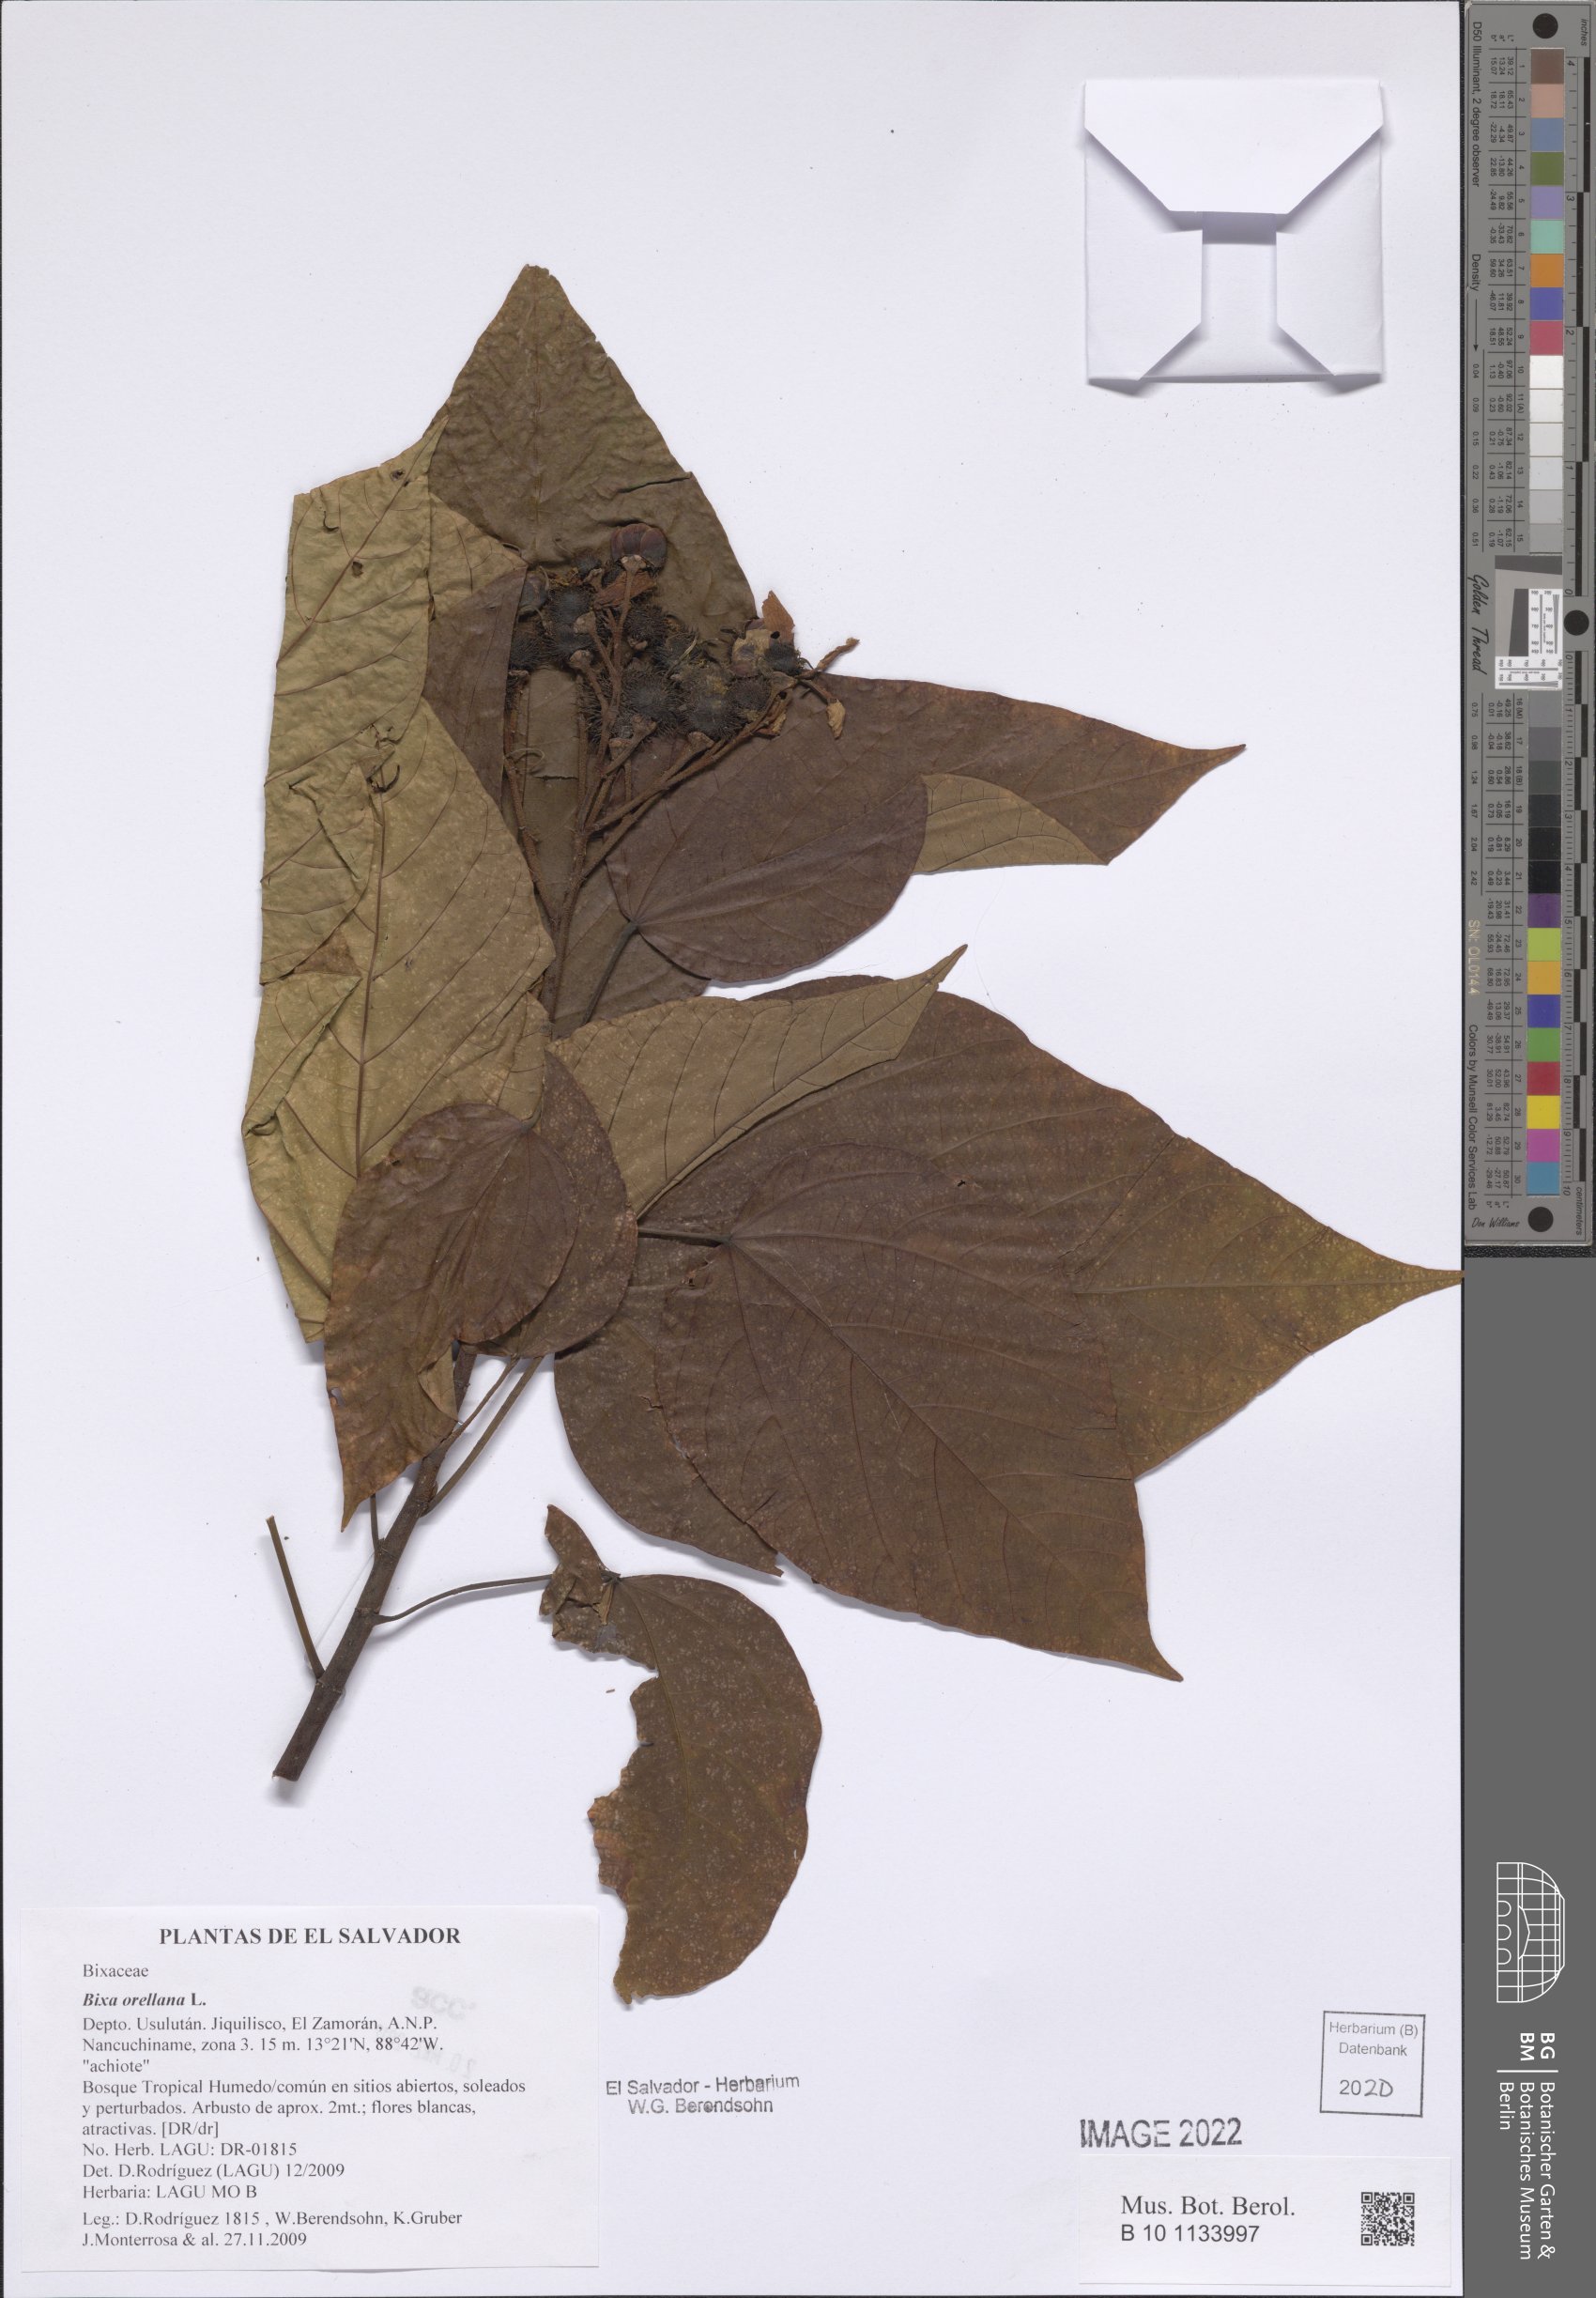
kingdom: Plantae
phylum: Tracheophyta
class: Magnoliopsida
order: Malvales
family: Bixaceae
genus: Bixa
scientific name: Bixa orellana
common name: Lipsticktree
